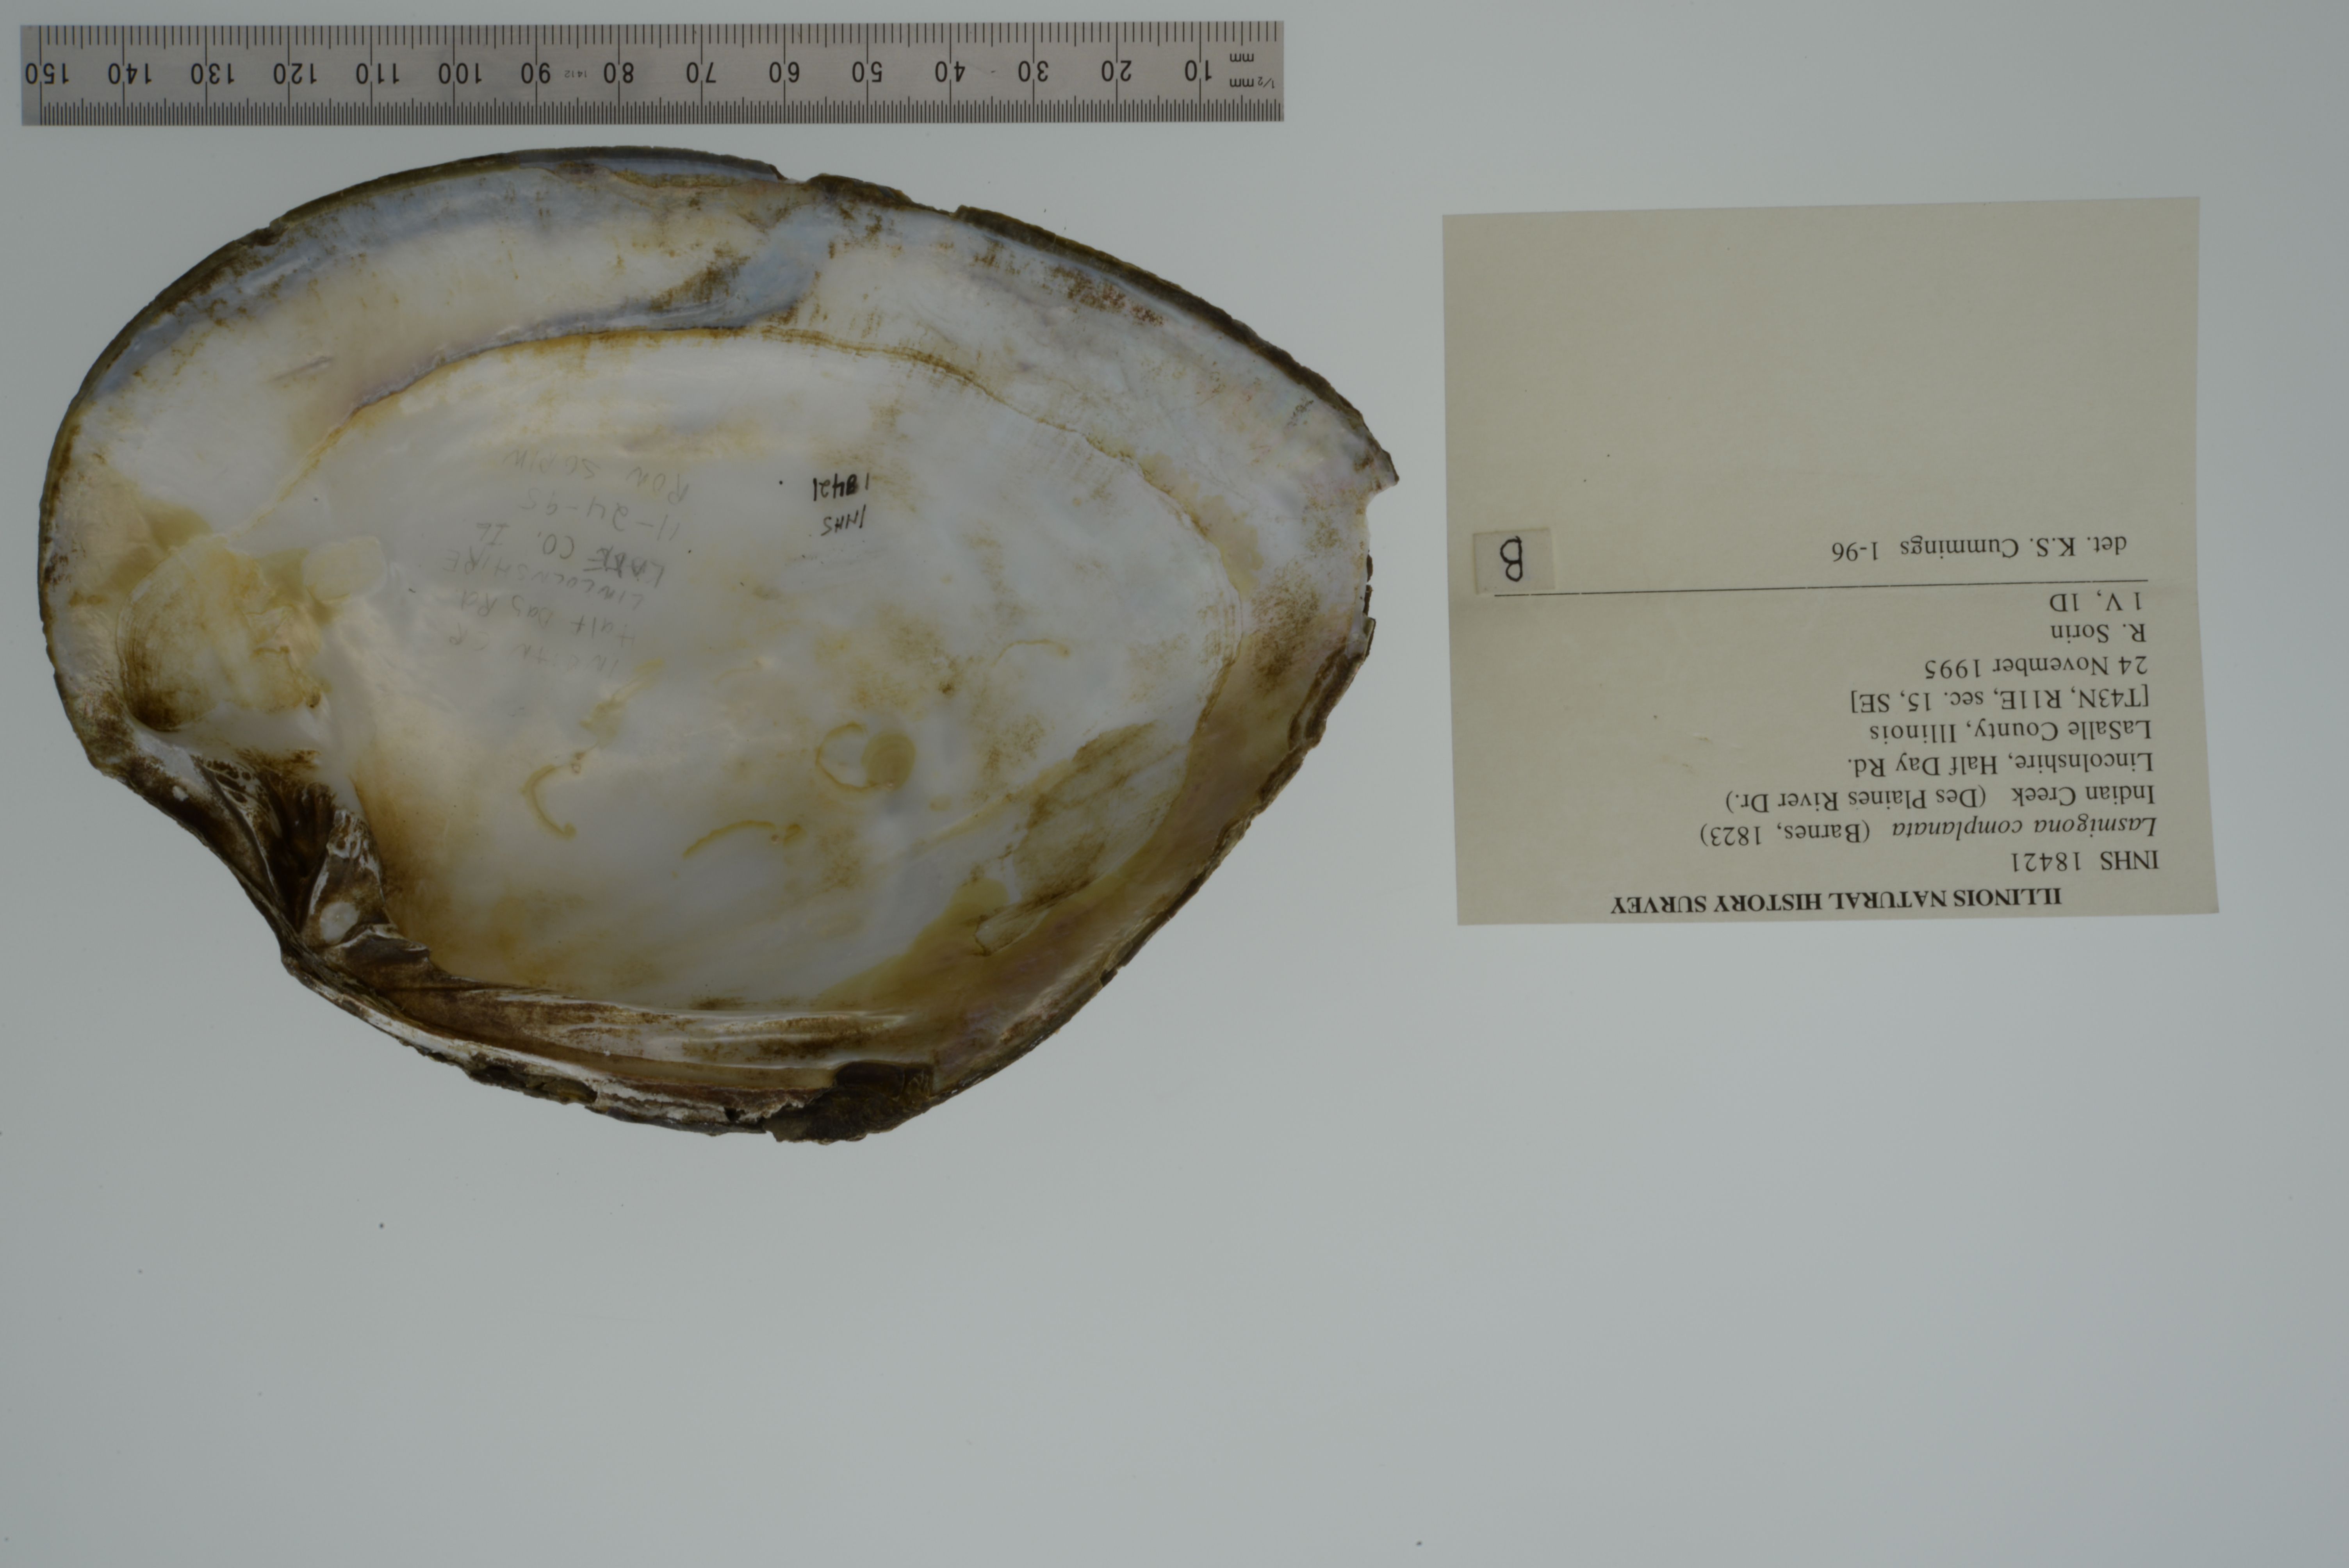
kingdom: Animalia
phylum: Mollusca
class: Bivalvia
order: Unionida
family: Unionidae
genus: Lasmigona
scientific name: Lasmigona complanata
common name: White heelsplitter
